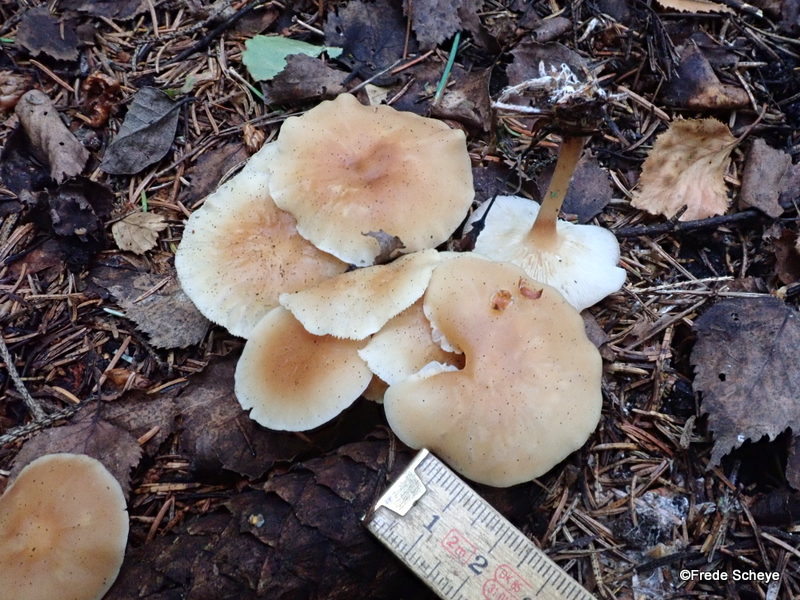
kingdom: Fungi
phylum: Basidiomycota
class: Agaricomycetes
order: Agaricales
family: Omphalotaceae
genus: Gymnopus
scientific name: Gymnopus dryophilus
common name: løv-fladhat
